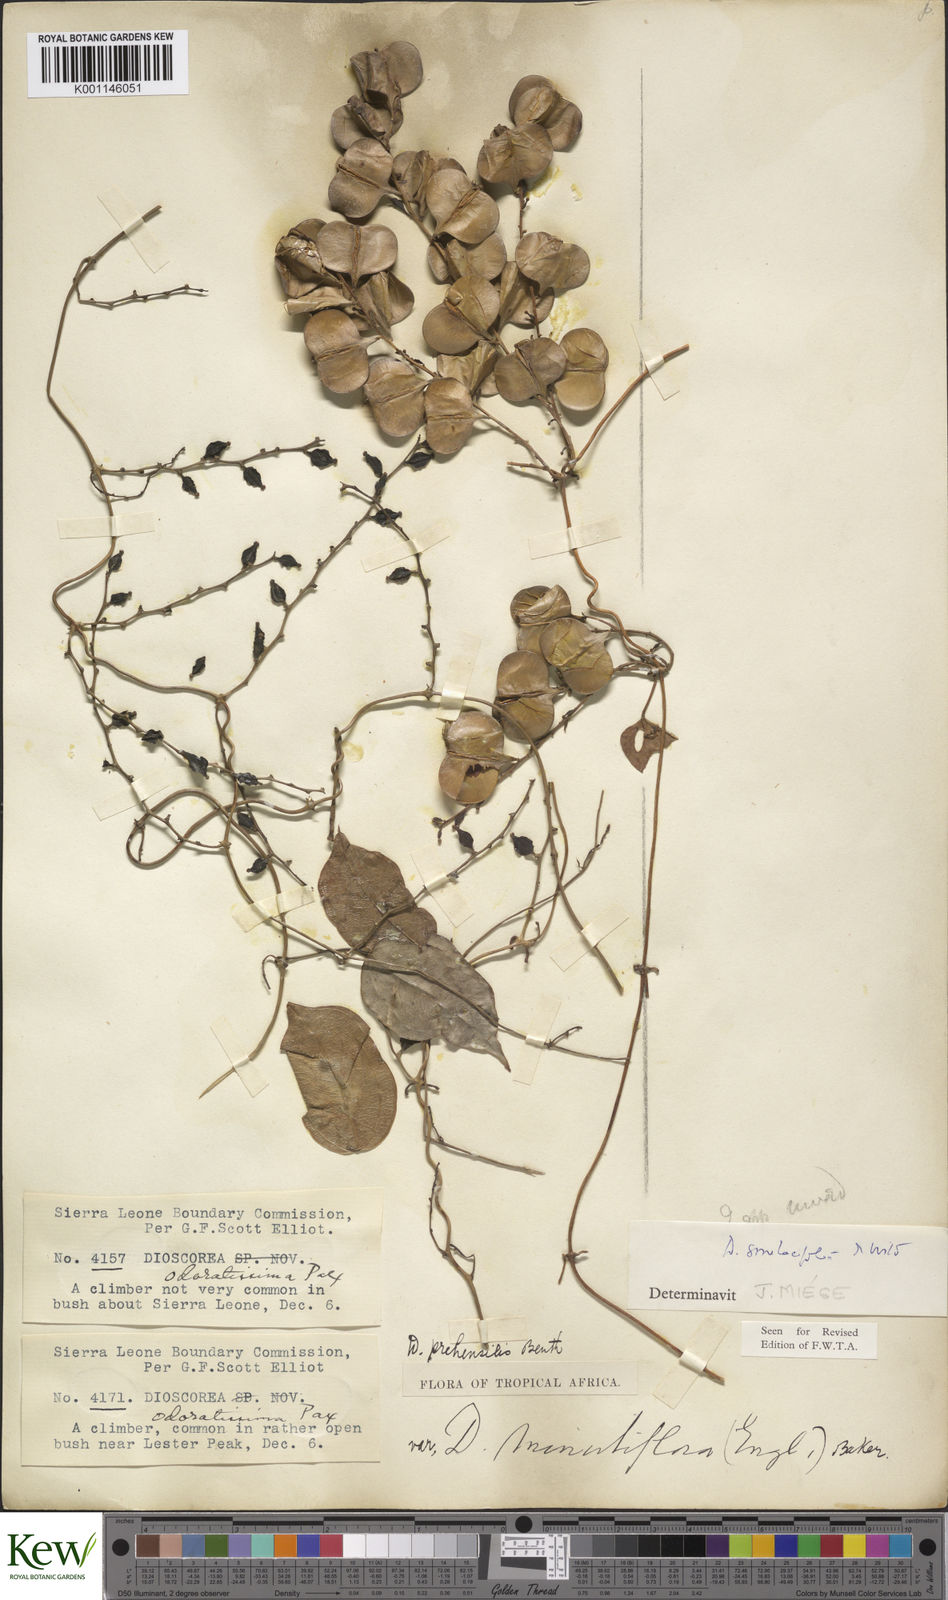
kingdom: Plantae
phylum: Tracheophyta
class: Liliopsida
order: Dioscoreales
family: Dioscoreaceae
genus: Dioscorea
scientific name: Dioscorea smilacifolia
